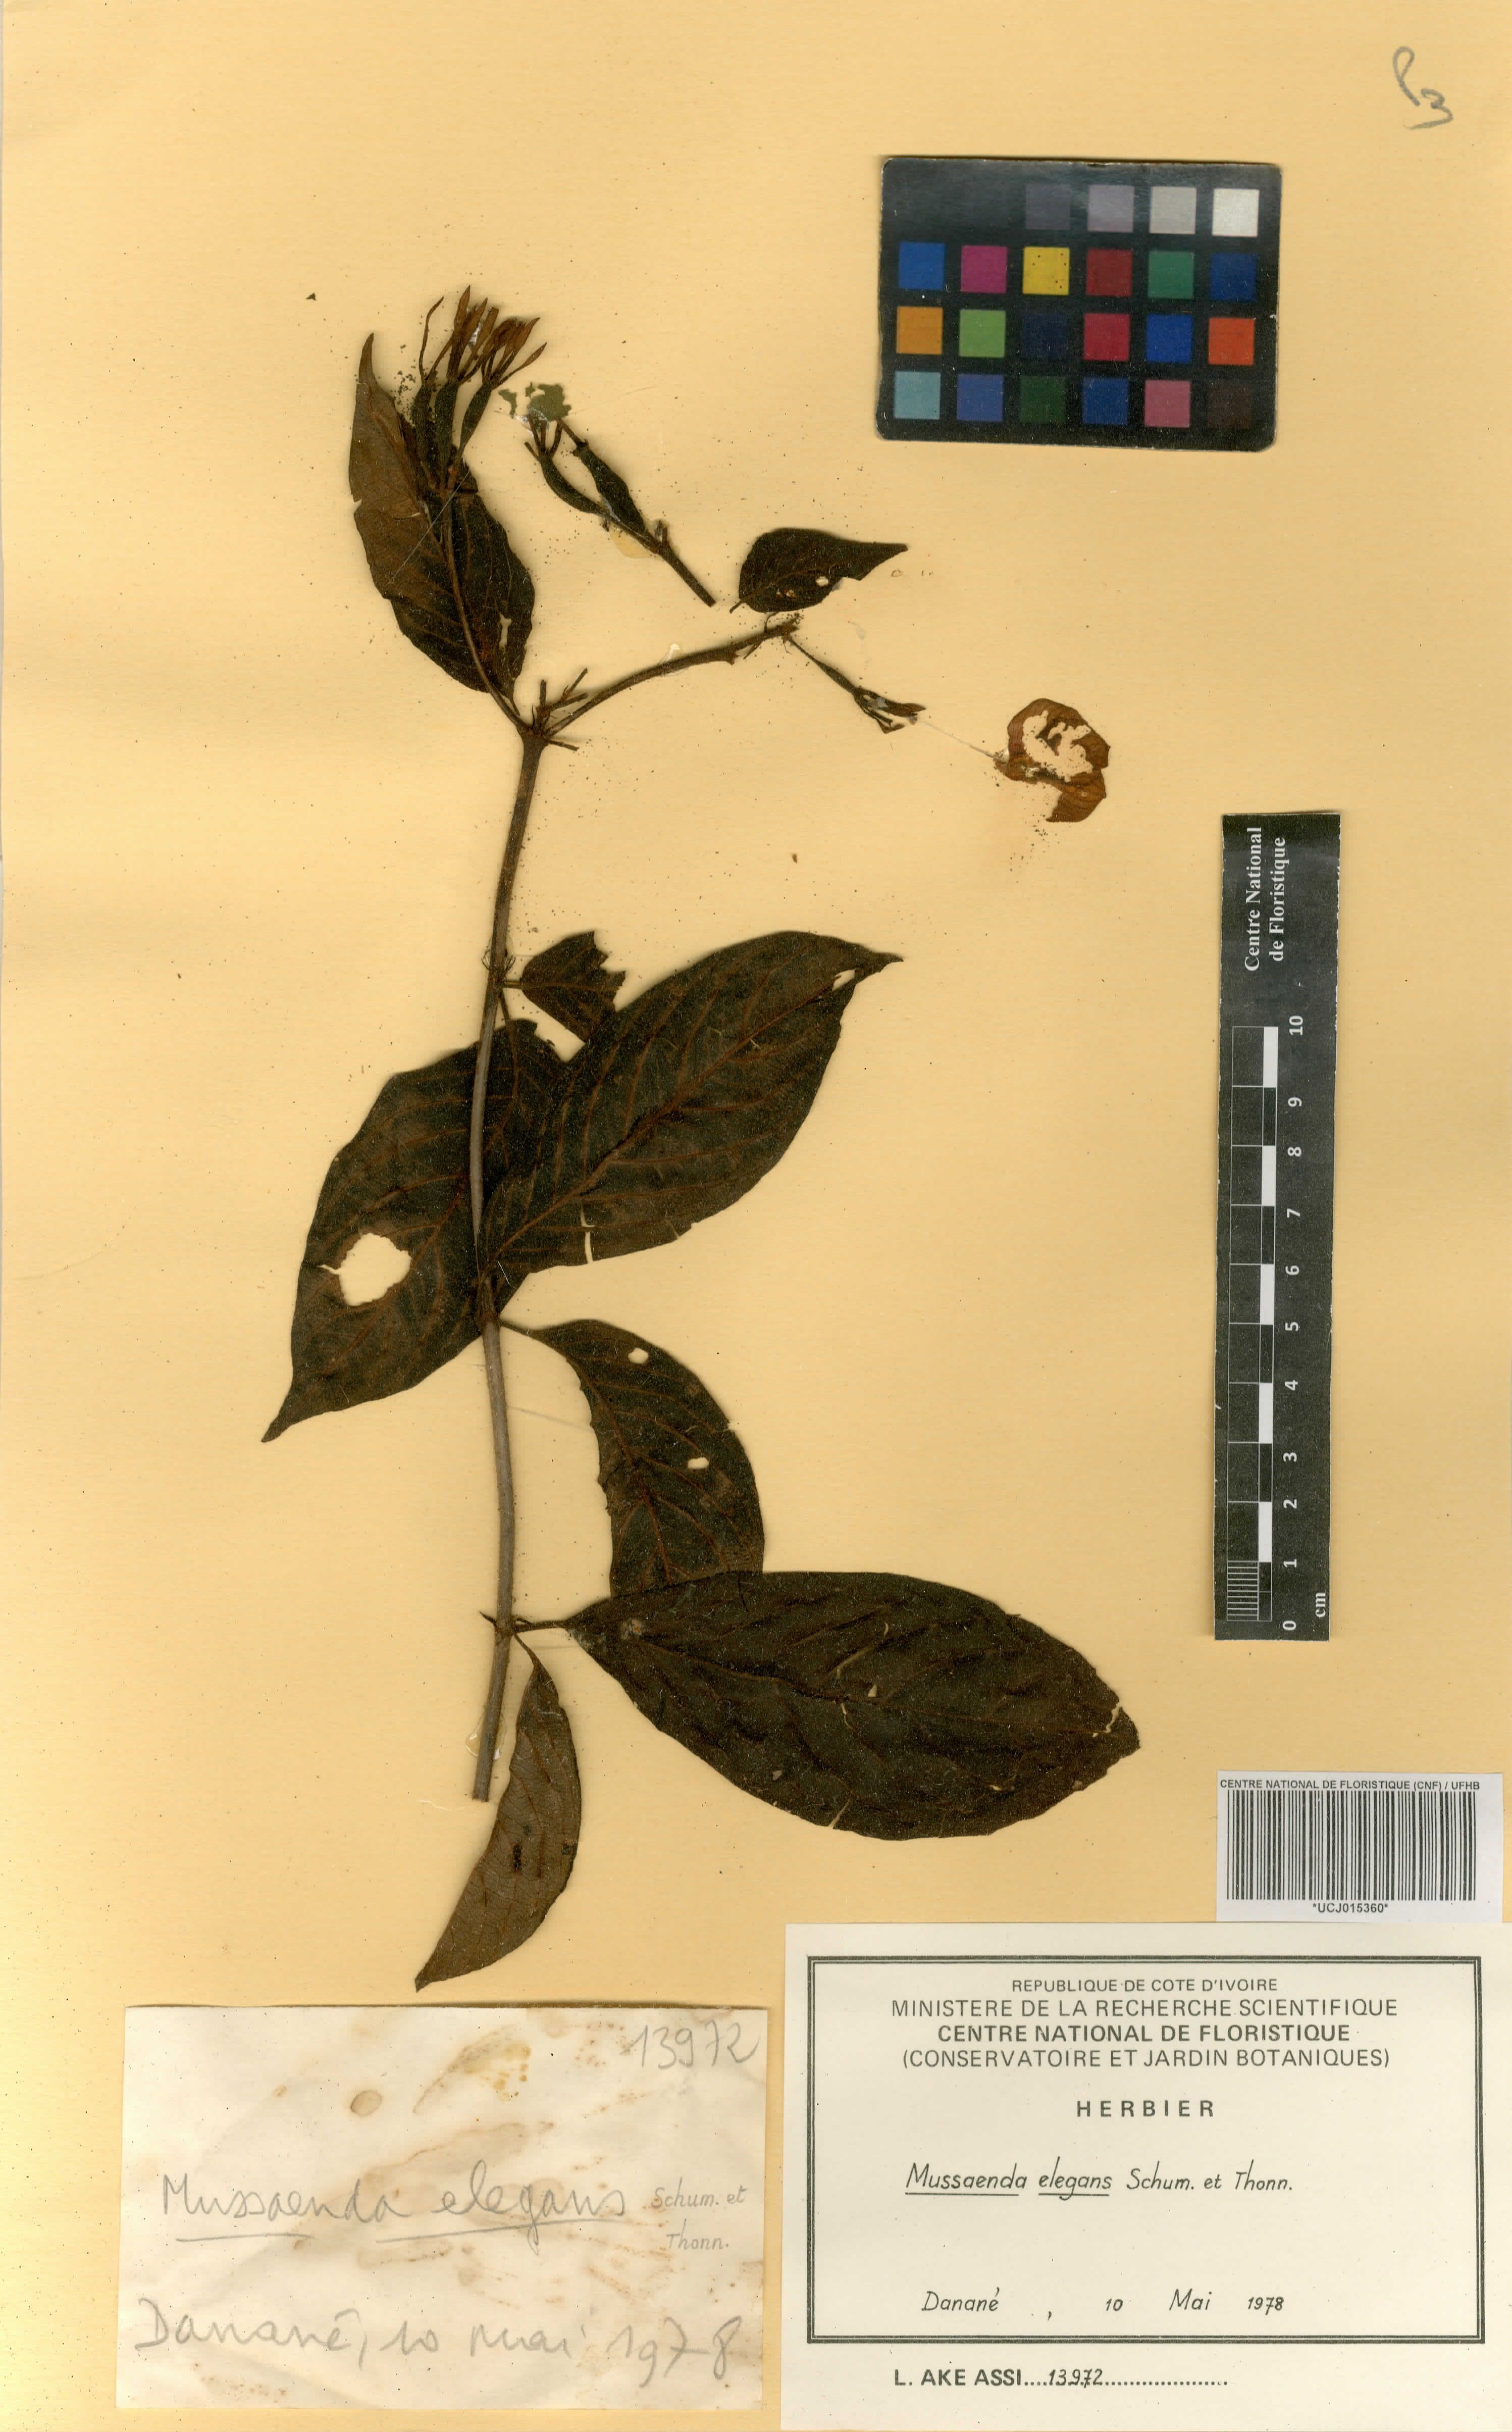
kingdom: Plantae
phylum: Tracheophyta
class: Magnoliopsida
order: Gentianales
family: Rubiaceae
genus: Mussaenda
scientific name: Mussaenda elegans
